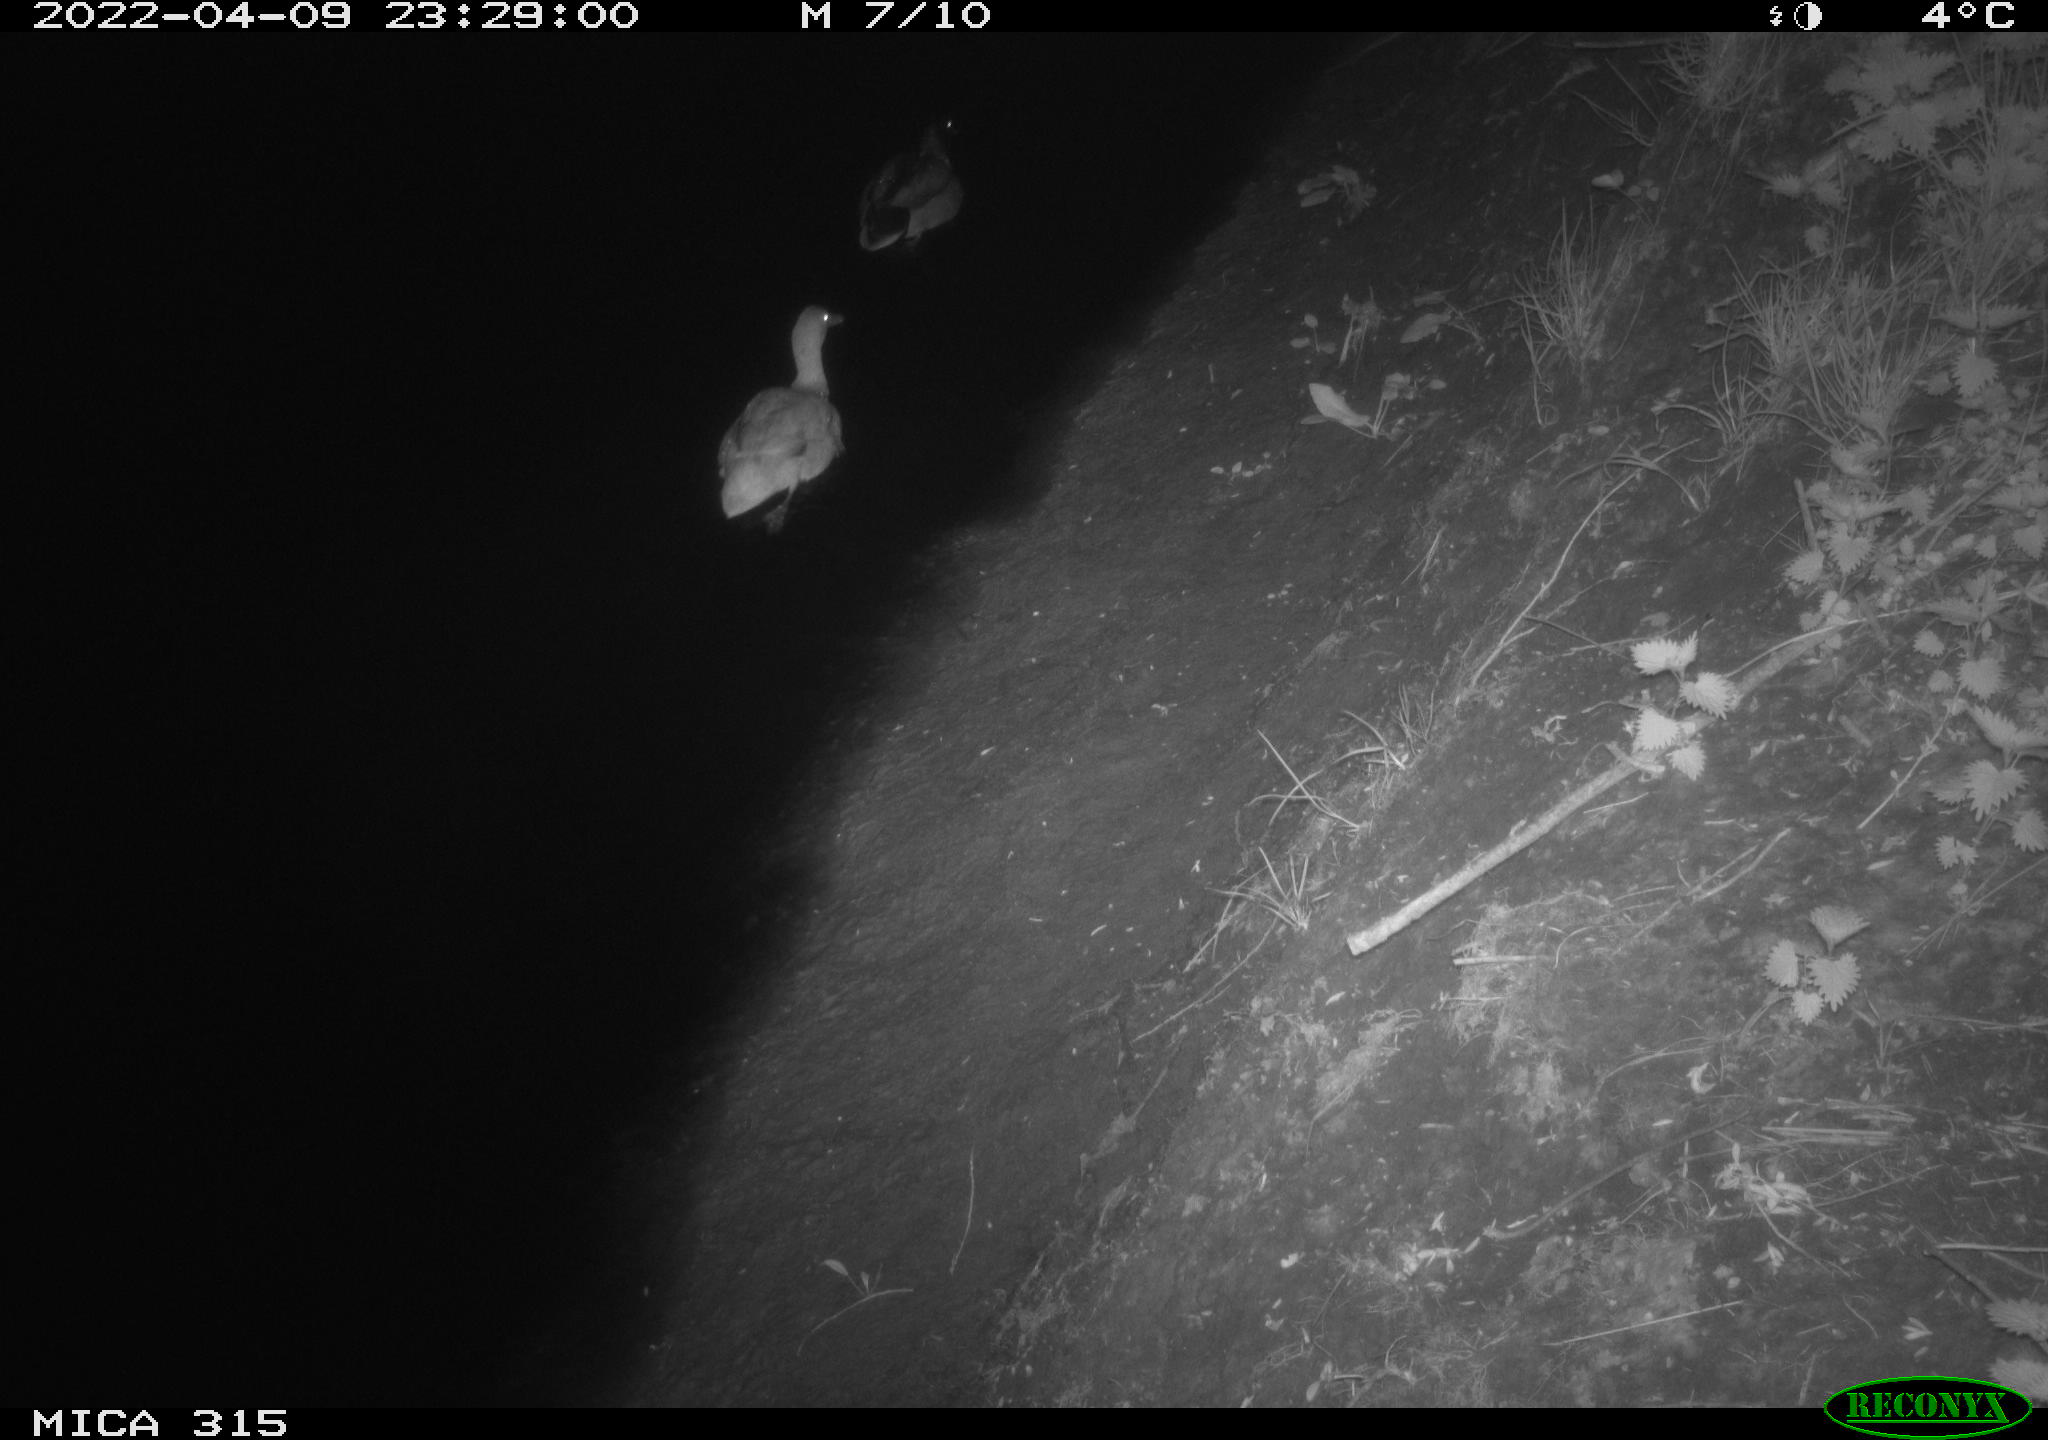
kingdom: Animalia
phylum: Chordata
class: Aves
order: Anseriformes
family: Anatidae
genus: Anas
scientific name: Anas platyrhynchos
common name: Mallard
